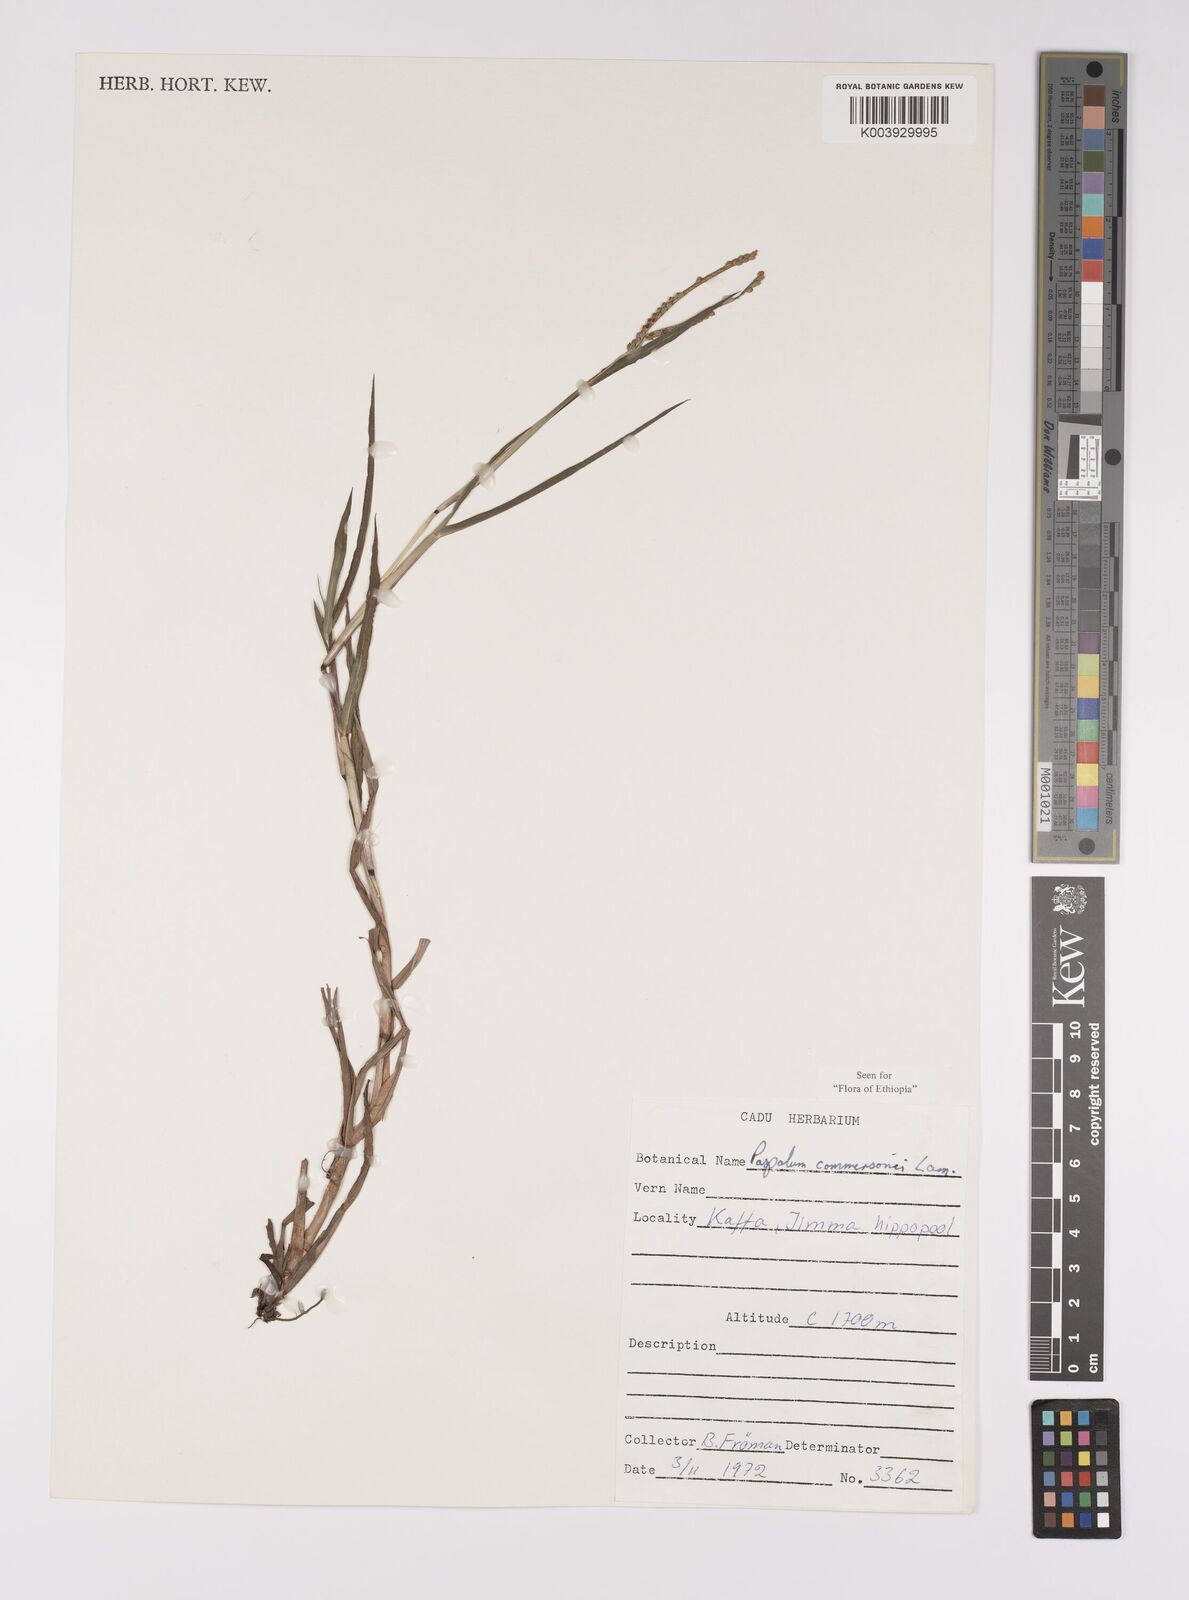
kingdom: Plantae
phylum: Tracheophyta
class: Liliopsida
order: Poales
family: Poaceae
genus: Paspalum
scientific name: Paspalum scrobiculatum
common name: Kodo millet
